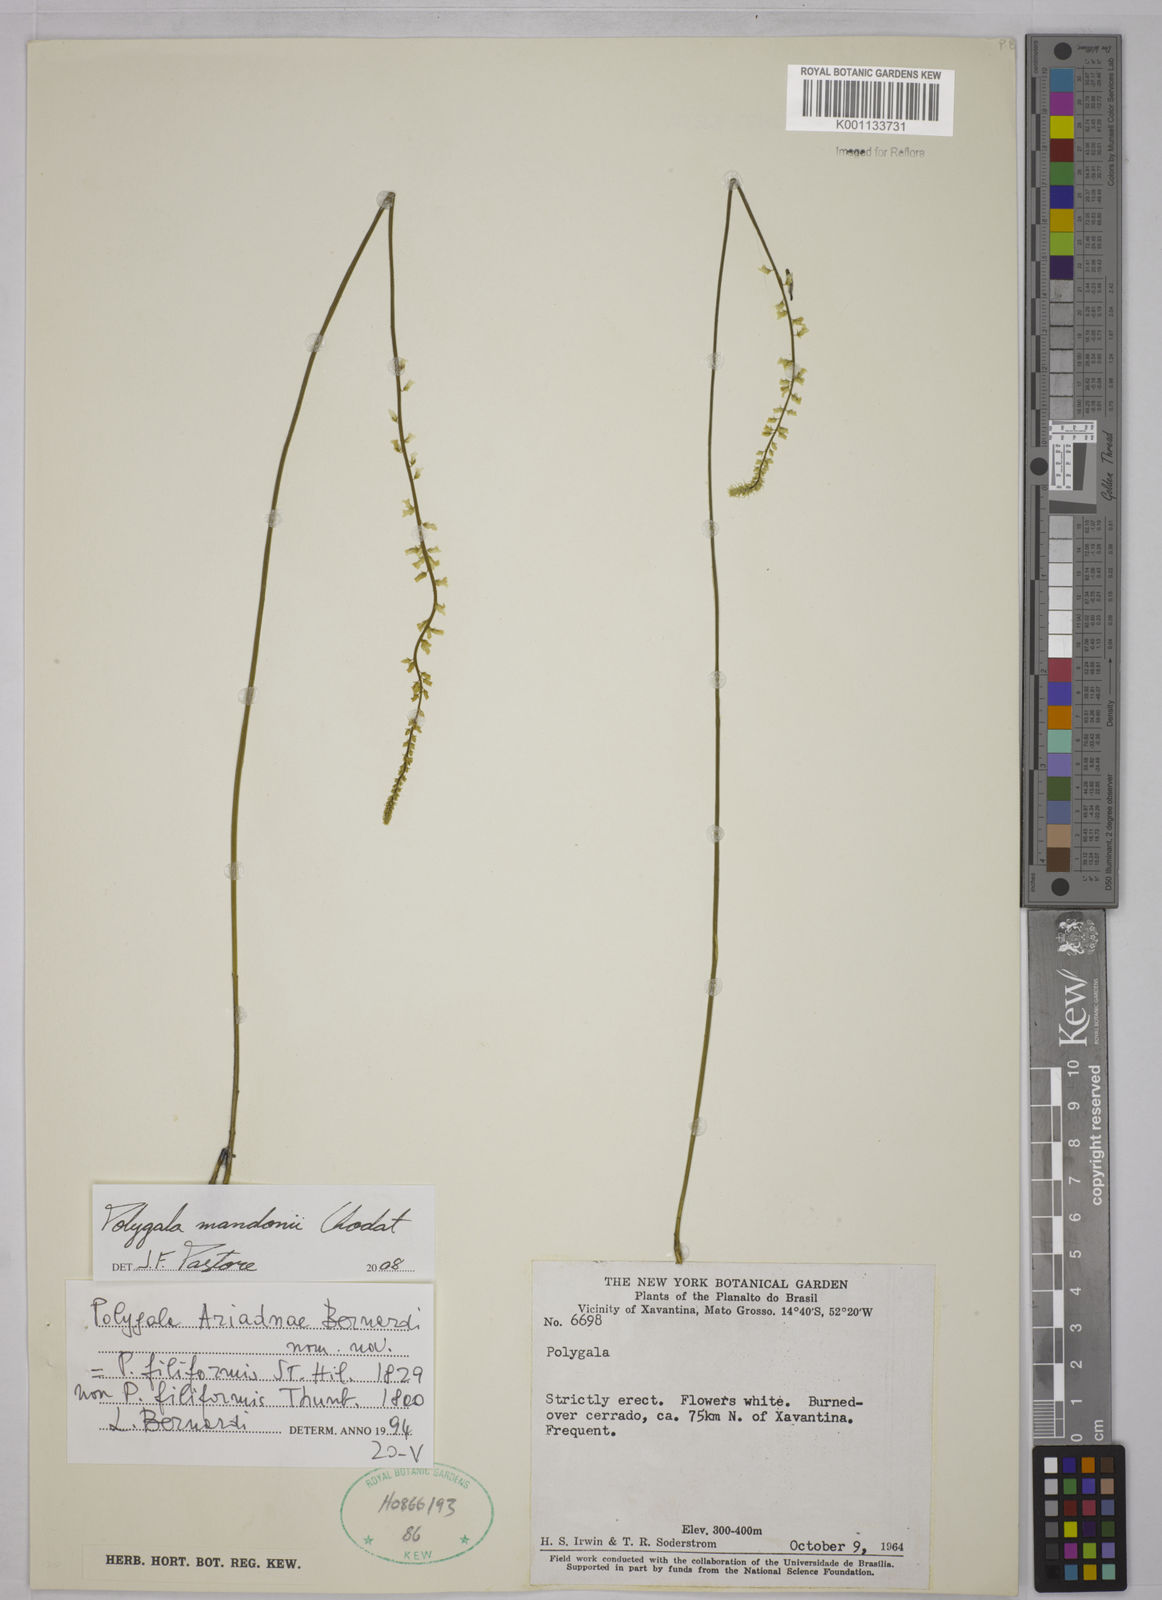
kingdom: Plantae
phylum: Tracheophyta
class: Magnoliopsida
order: Fabales
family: Polygalaceae
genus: Polygala
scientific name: Polygala mandonii
